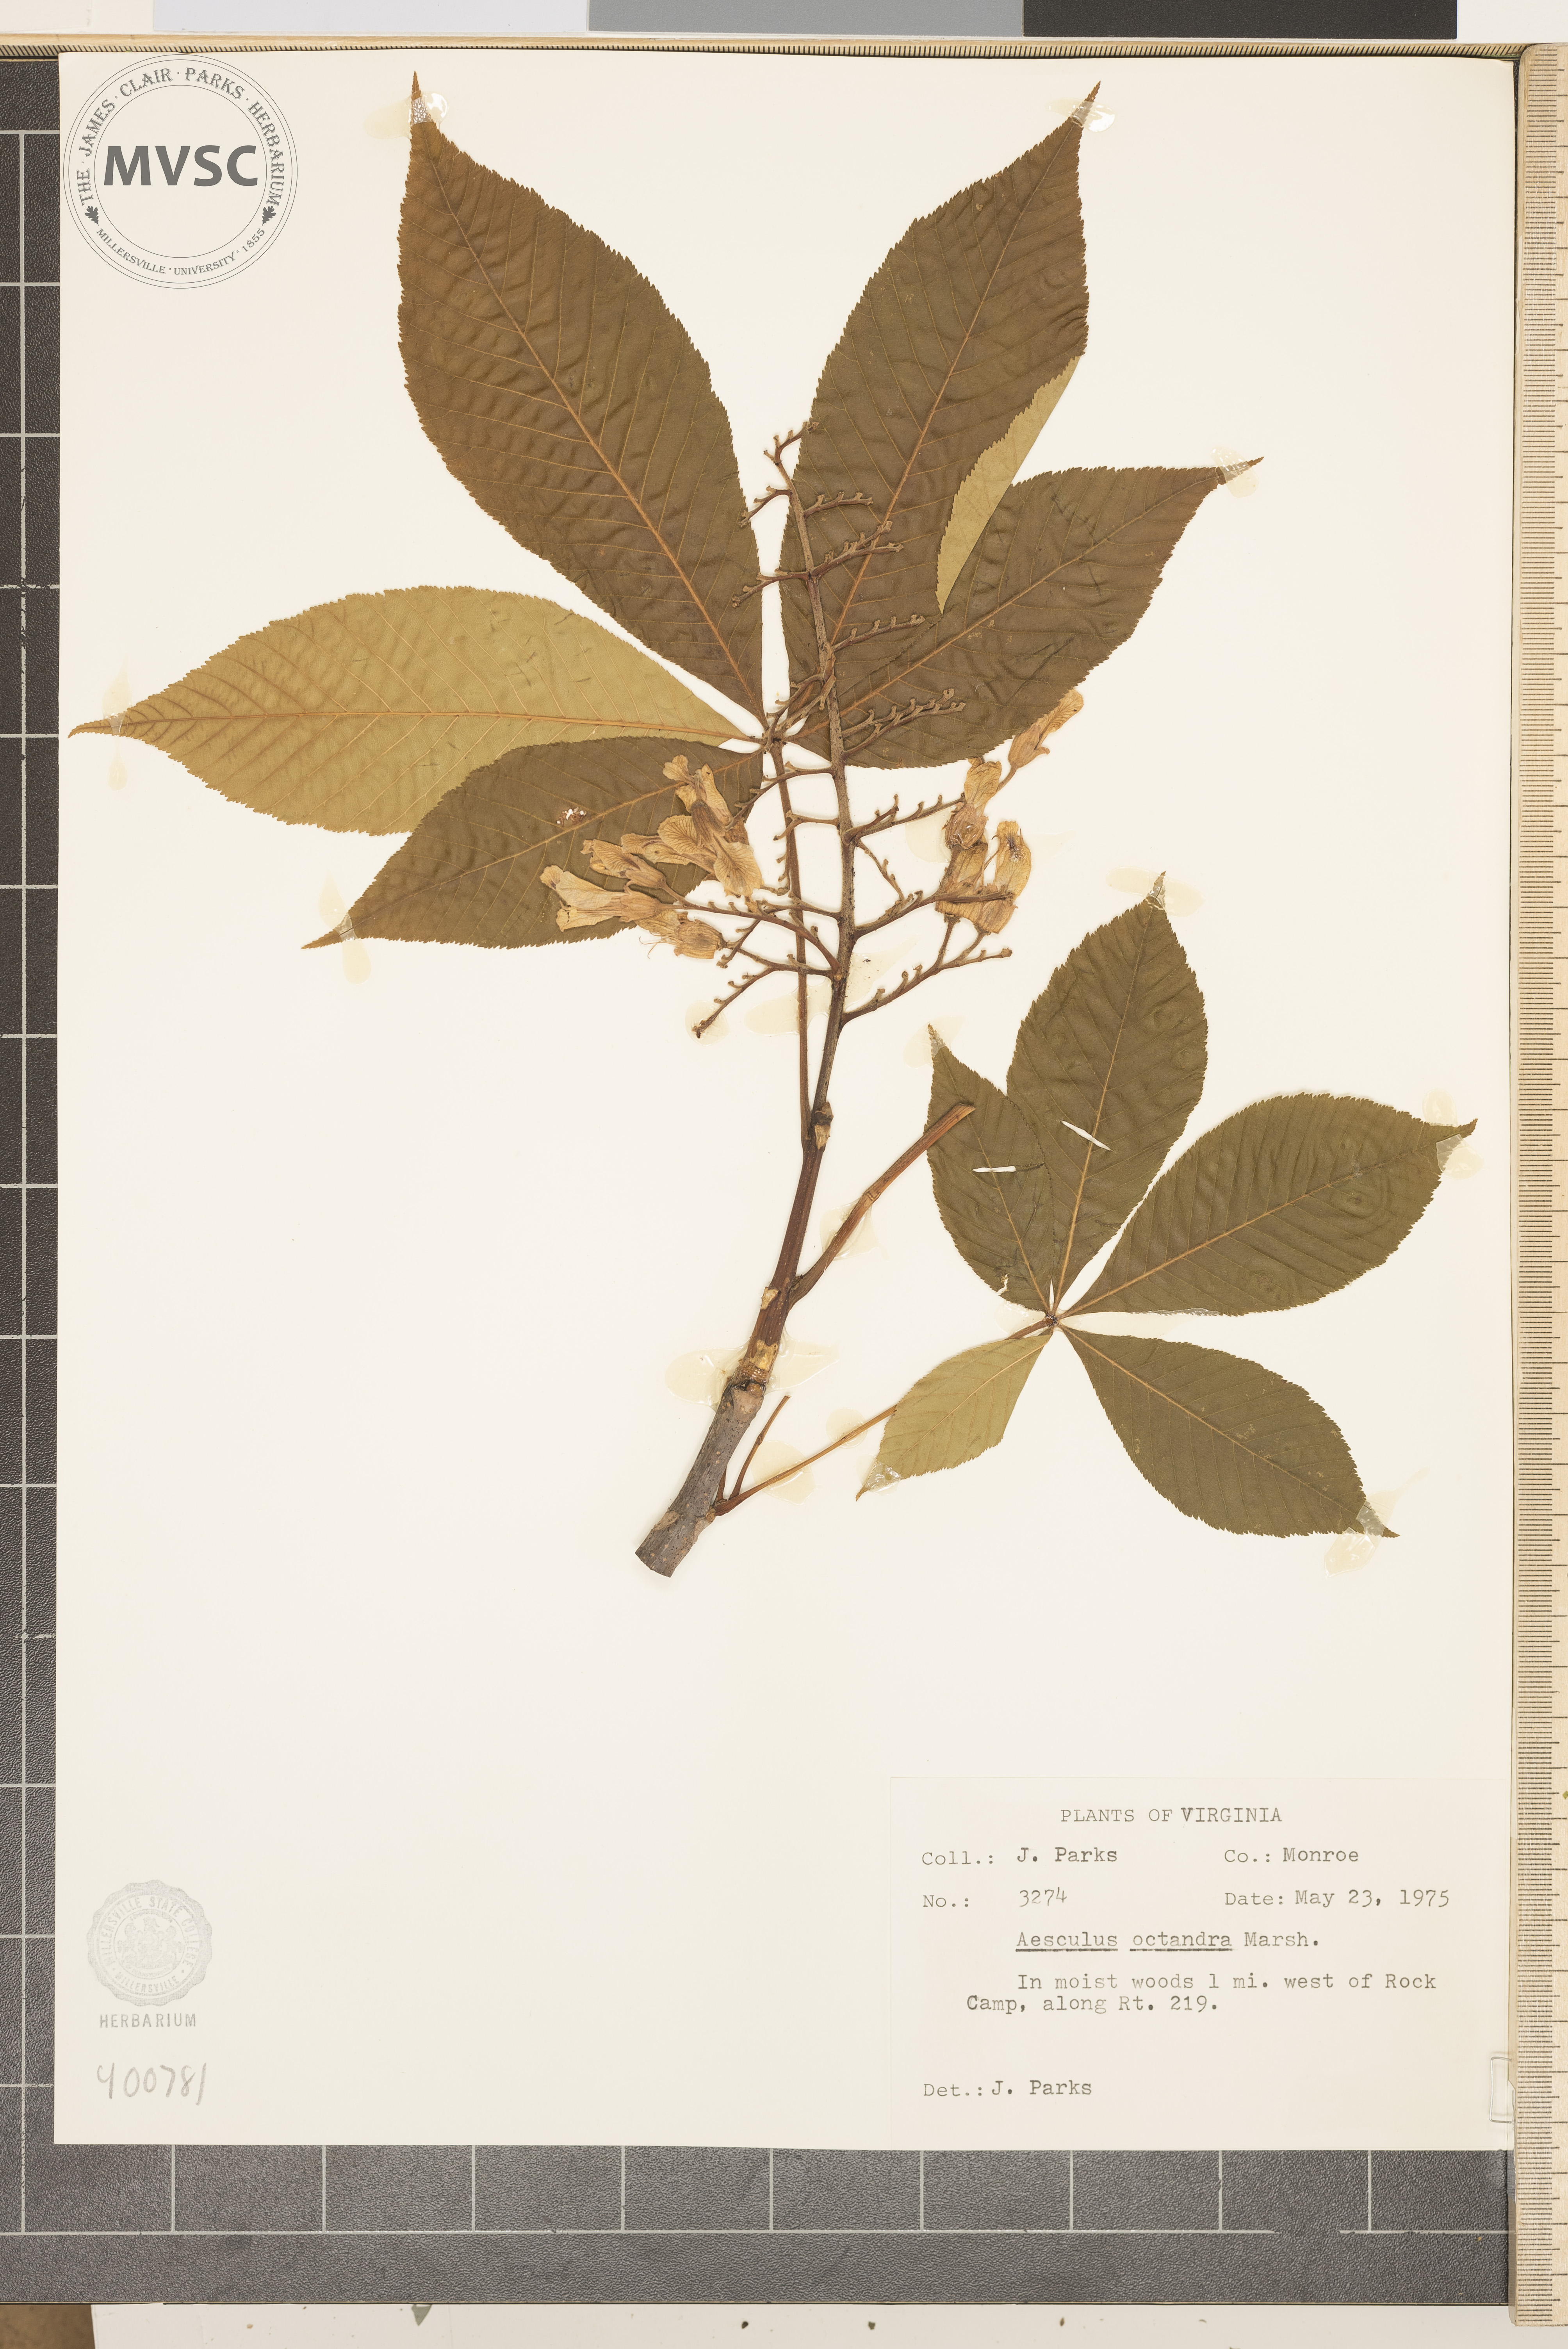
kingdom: Plantae
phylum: Tracheophyta
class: Magnoliopsida
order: Sapindales
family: Sapindaceae
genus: Aesculus
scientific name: Aesculus flava
